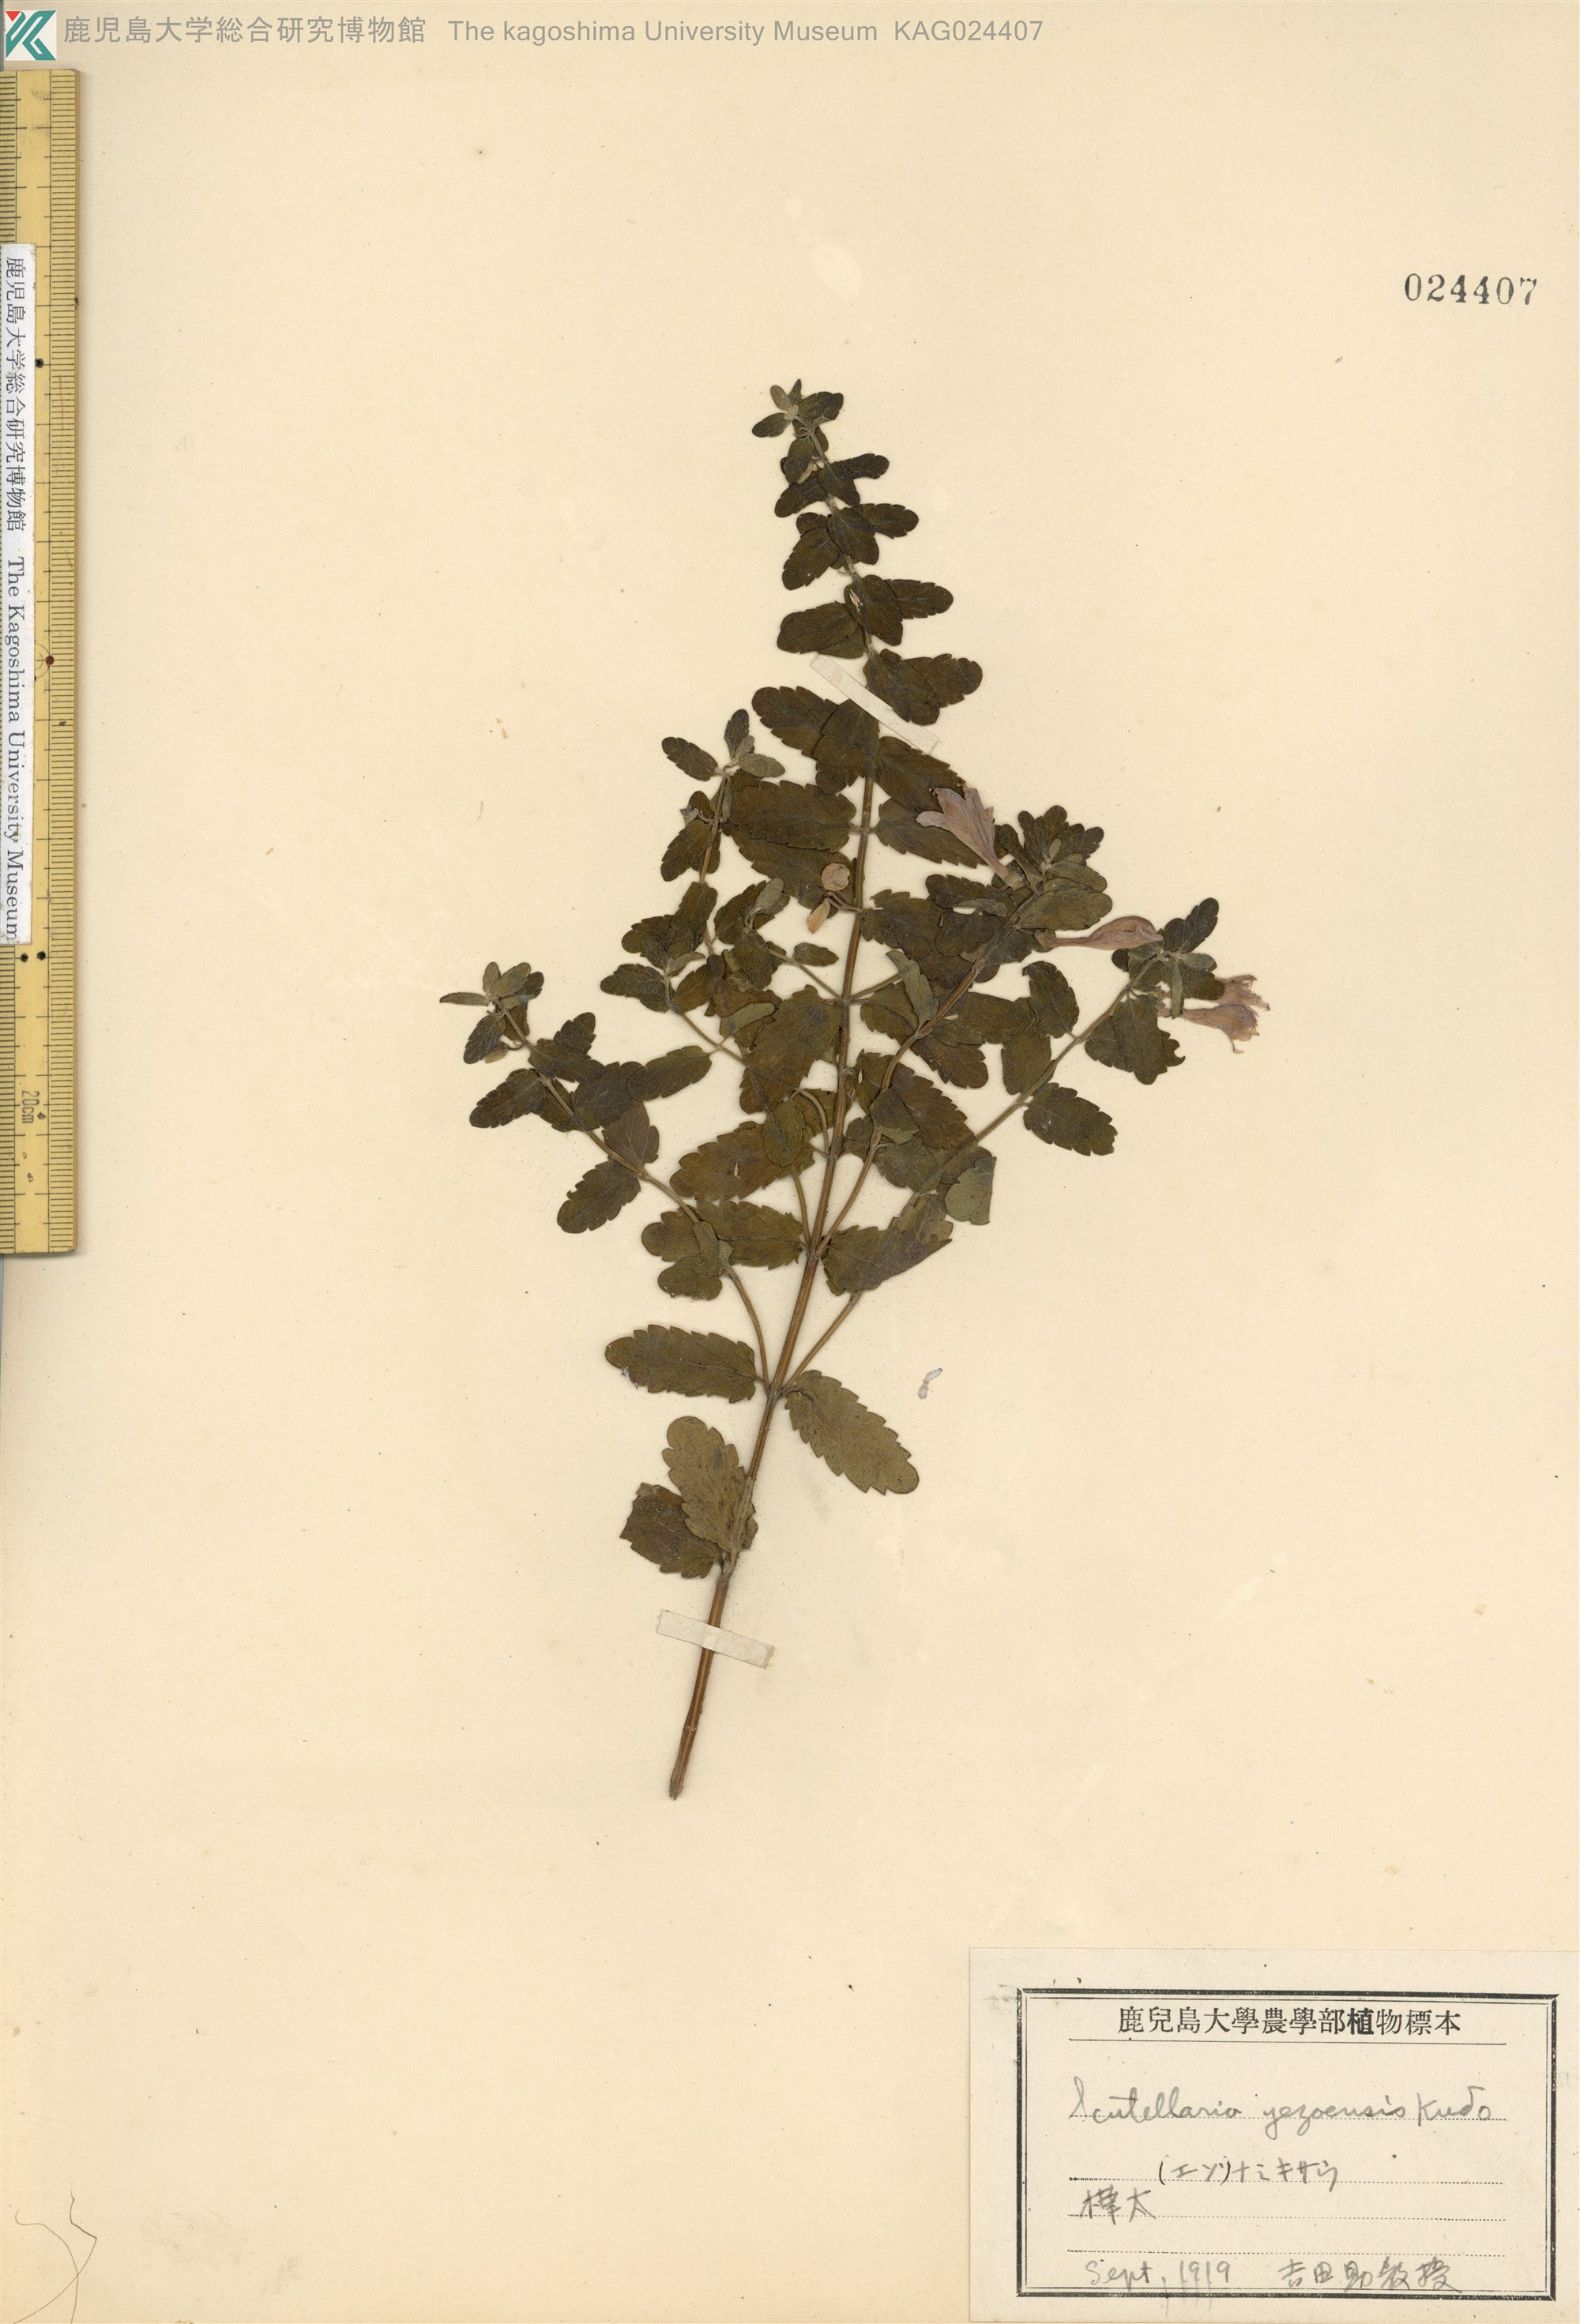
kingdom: Plantae
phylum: Tracheophyta
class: Magnoliopsida
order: Lamiales
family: Lamiaceae
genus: Scutellaria
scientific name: Scutellaria strigillosa
